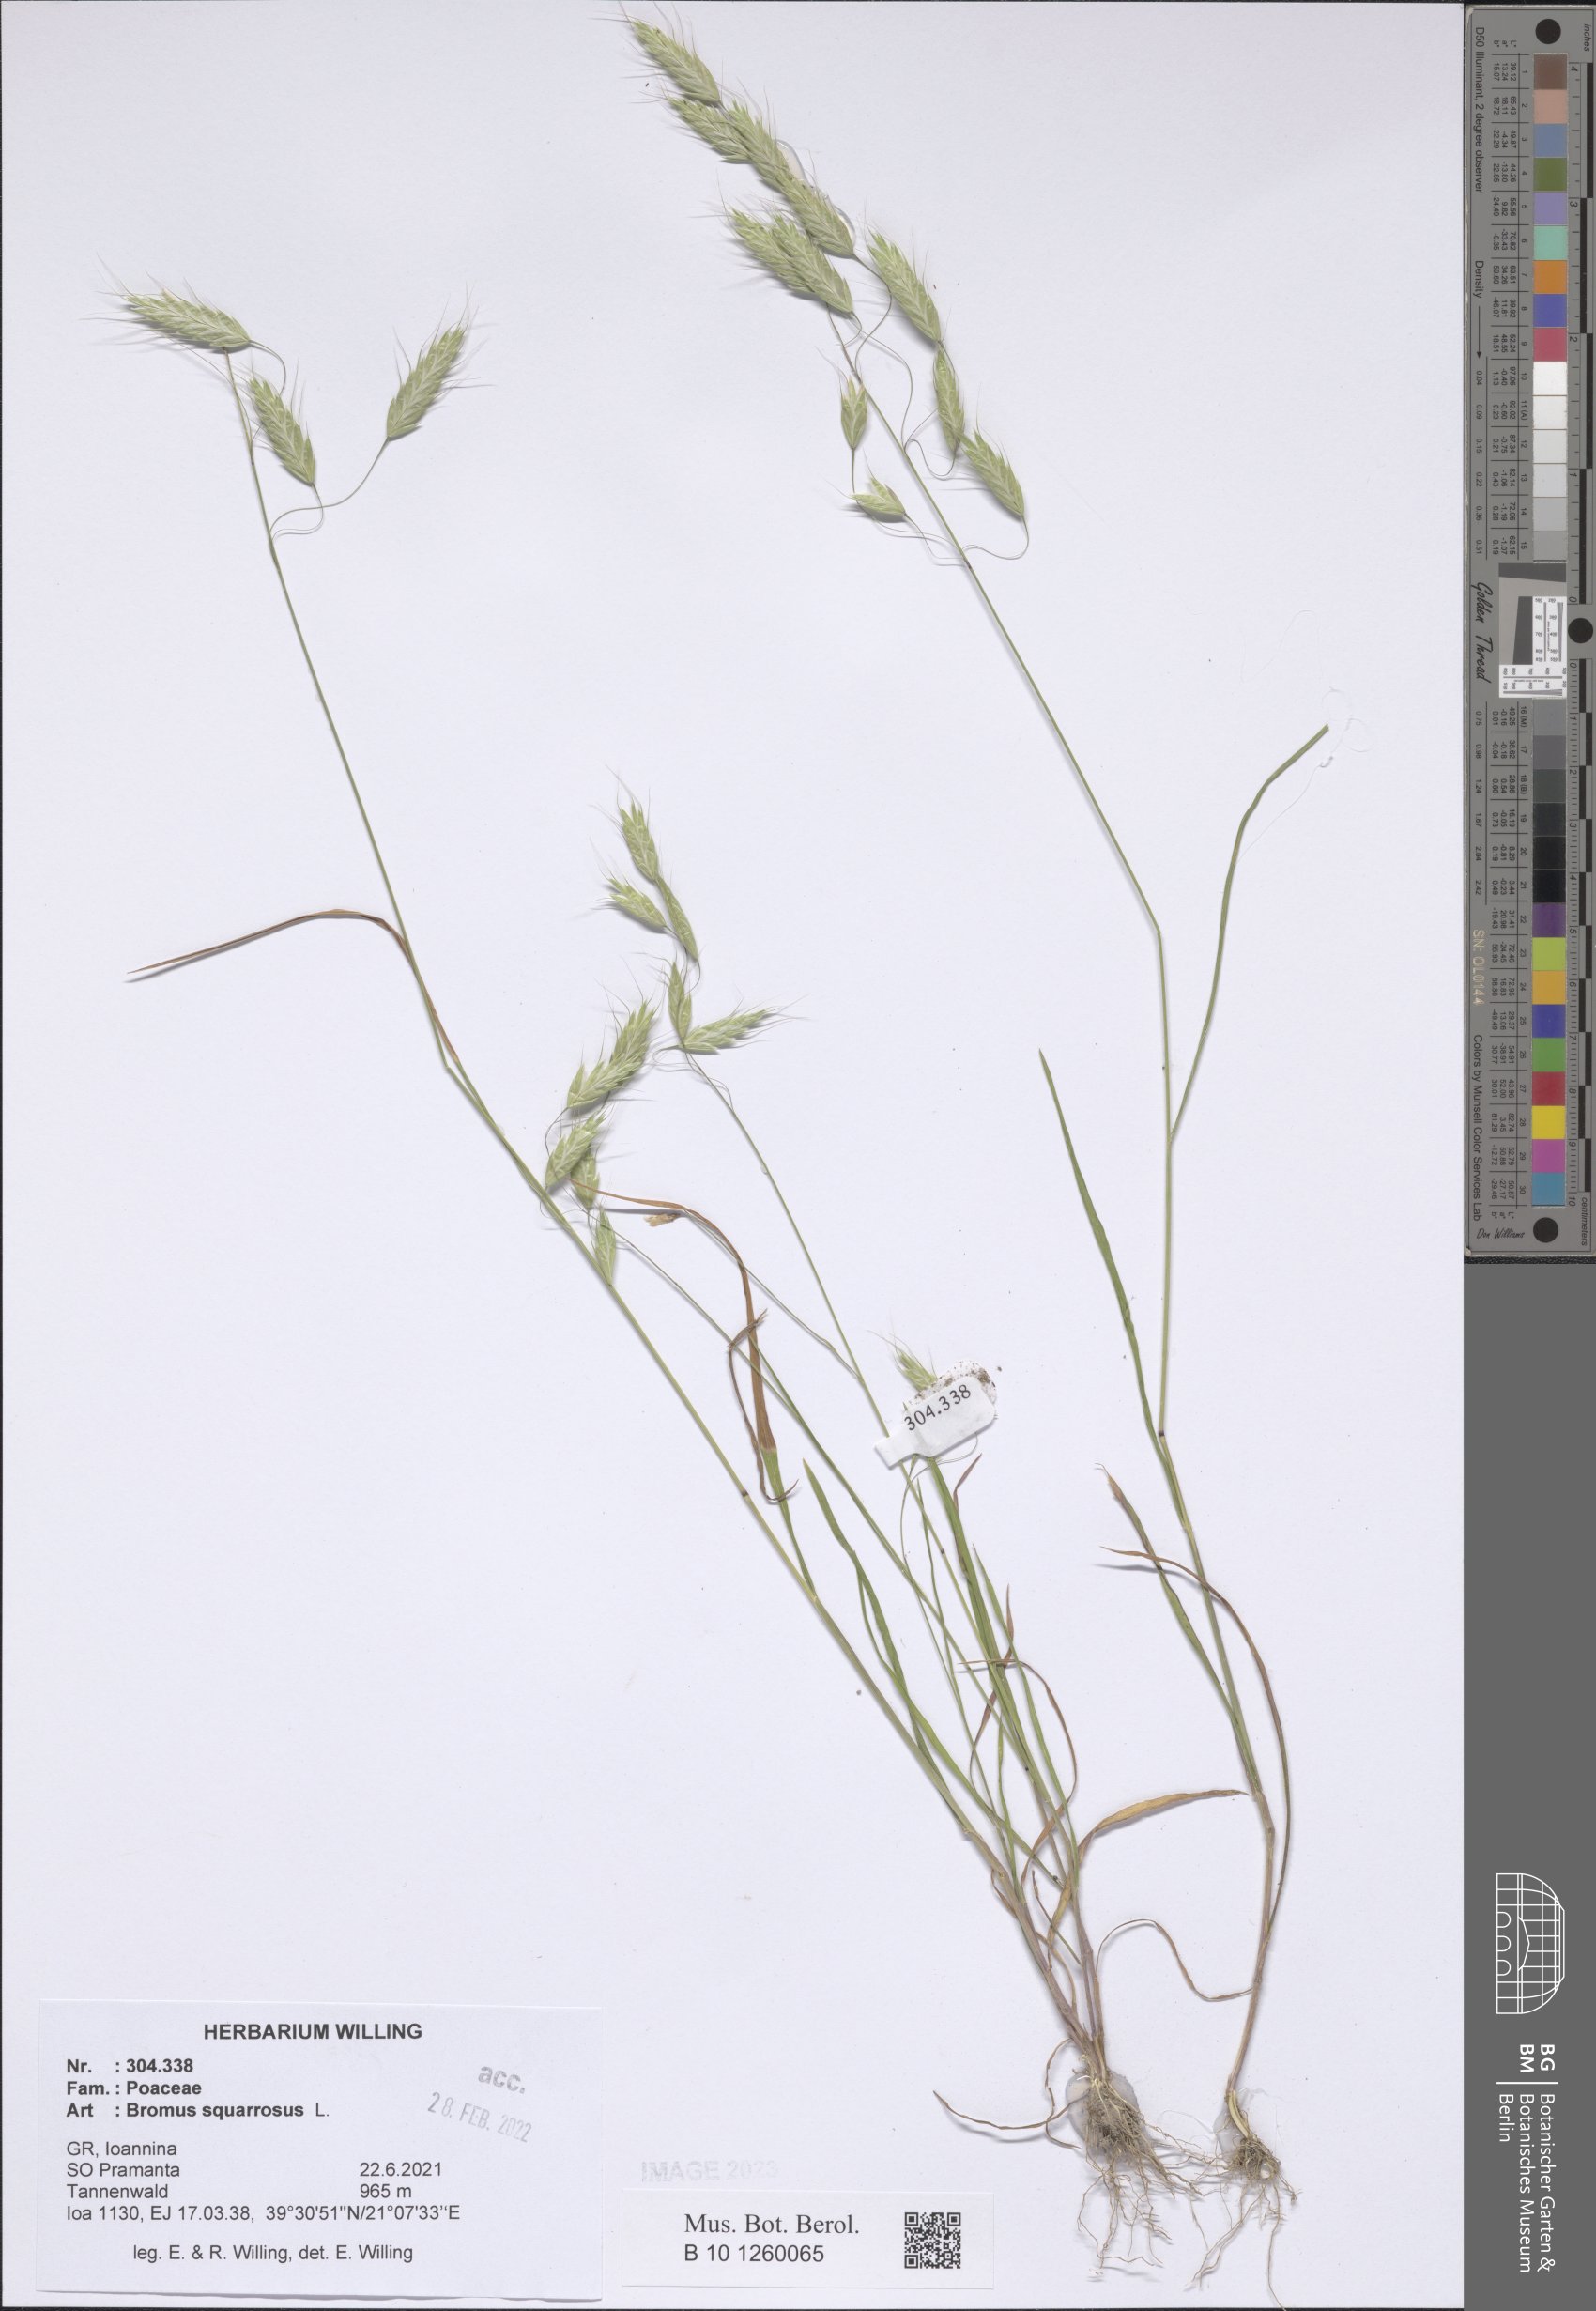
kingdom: Plantae
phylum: Tracheophyta
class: Liliopsida
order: Poales
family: Poaceae
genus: Bromus
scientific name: Bromus squarrosus
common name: Corn brome
